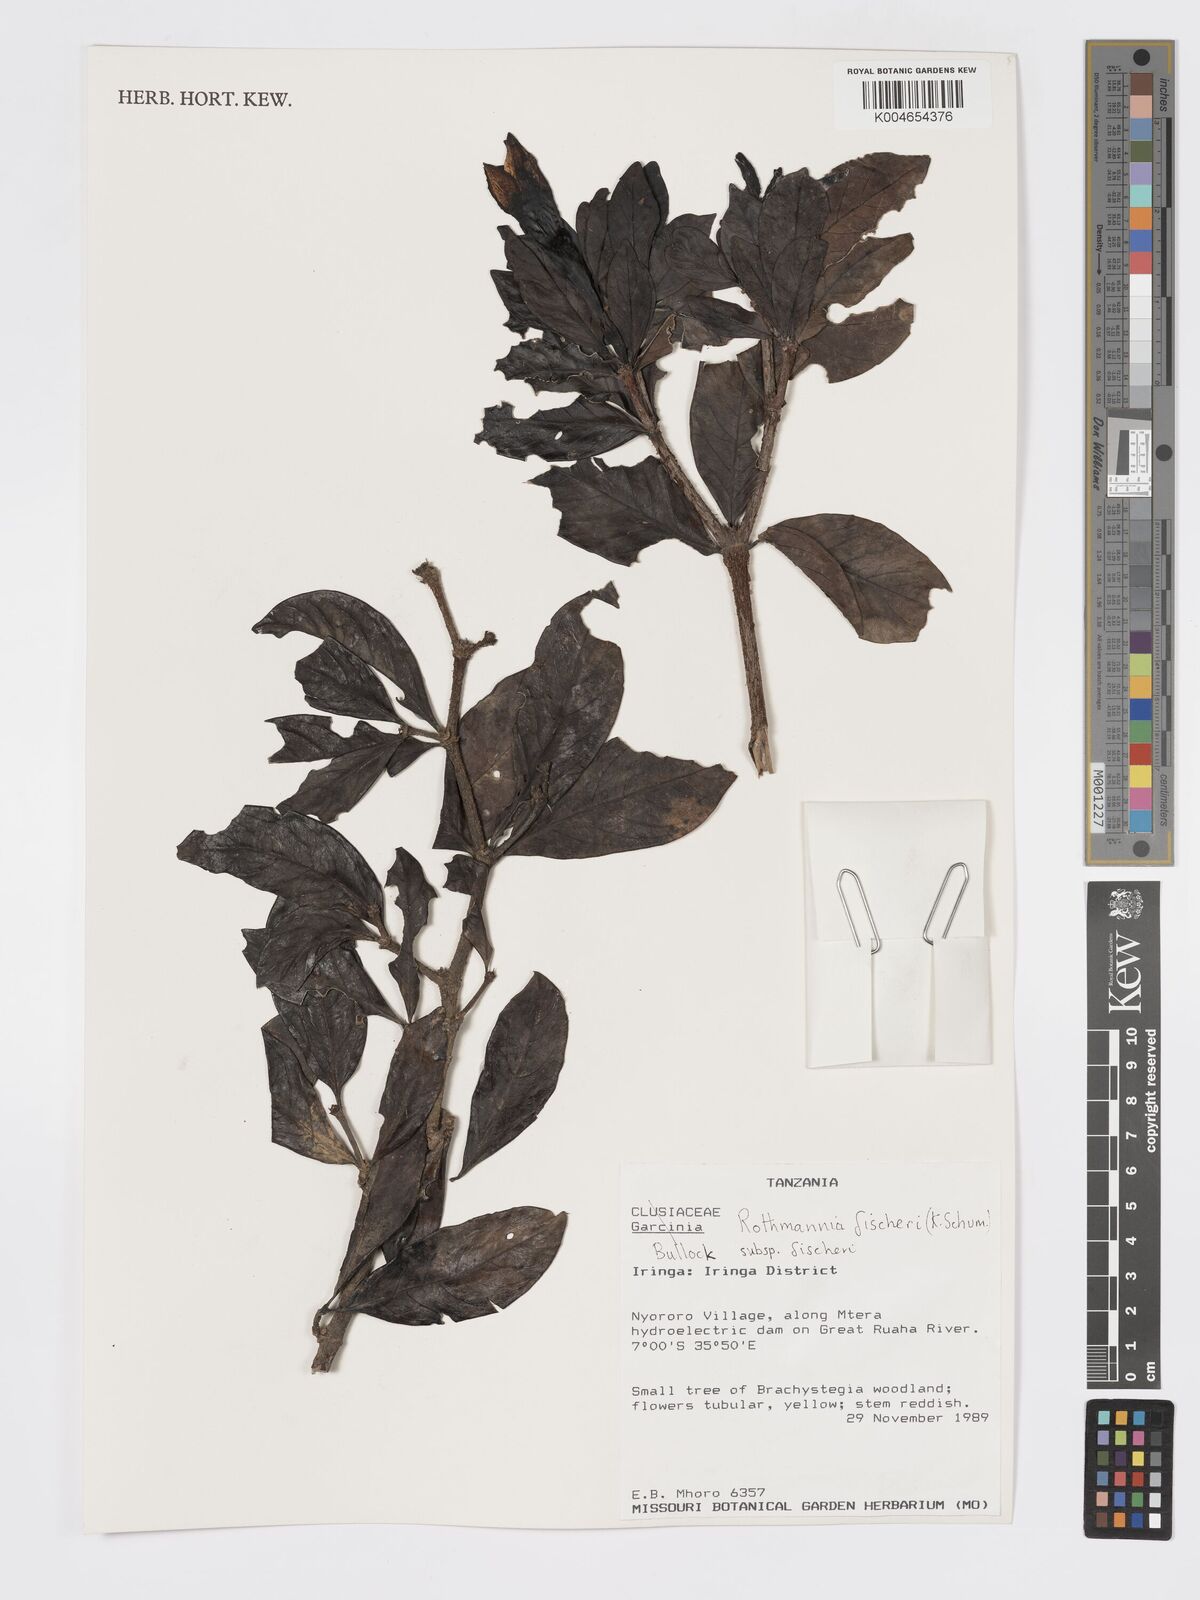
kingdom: Plantae
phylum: Tracheophyta
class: Magnoliopsida
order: Gentianales
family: Rubiaceae
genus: Rothmannia
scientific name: Rothmannia fischeri
